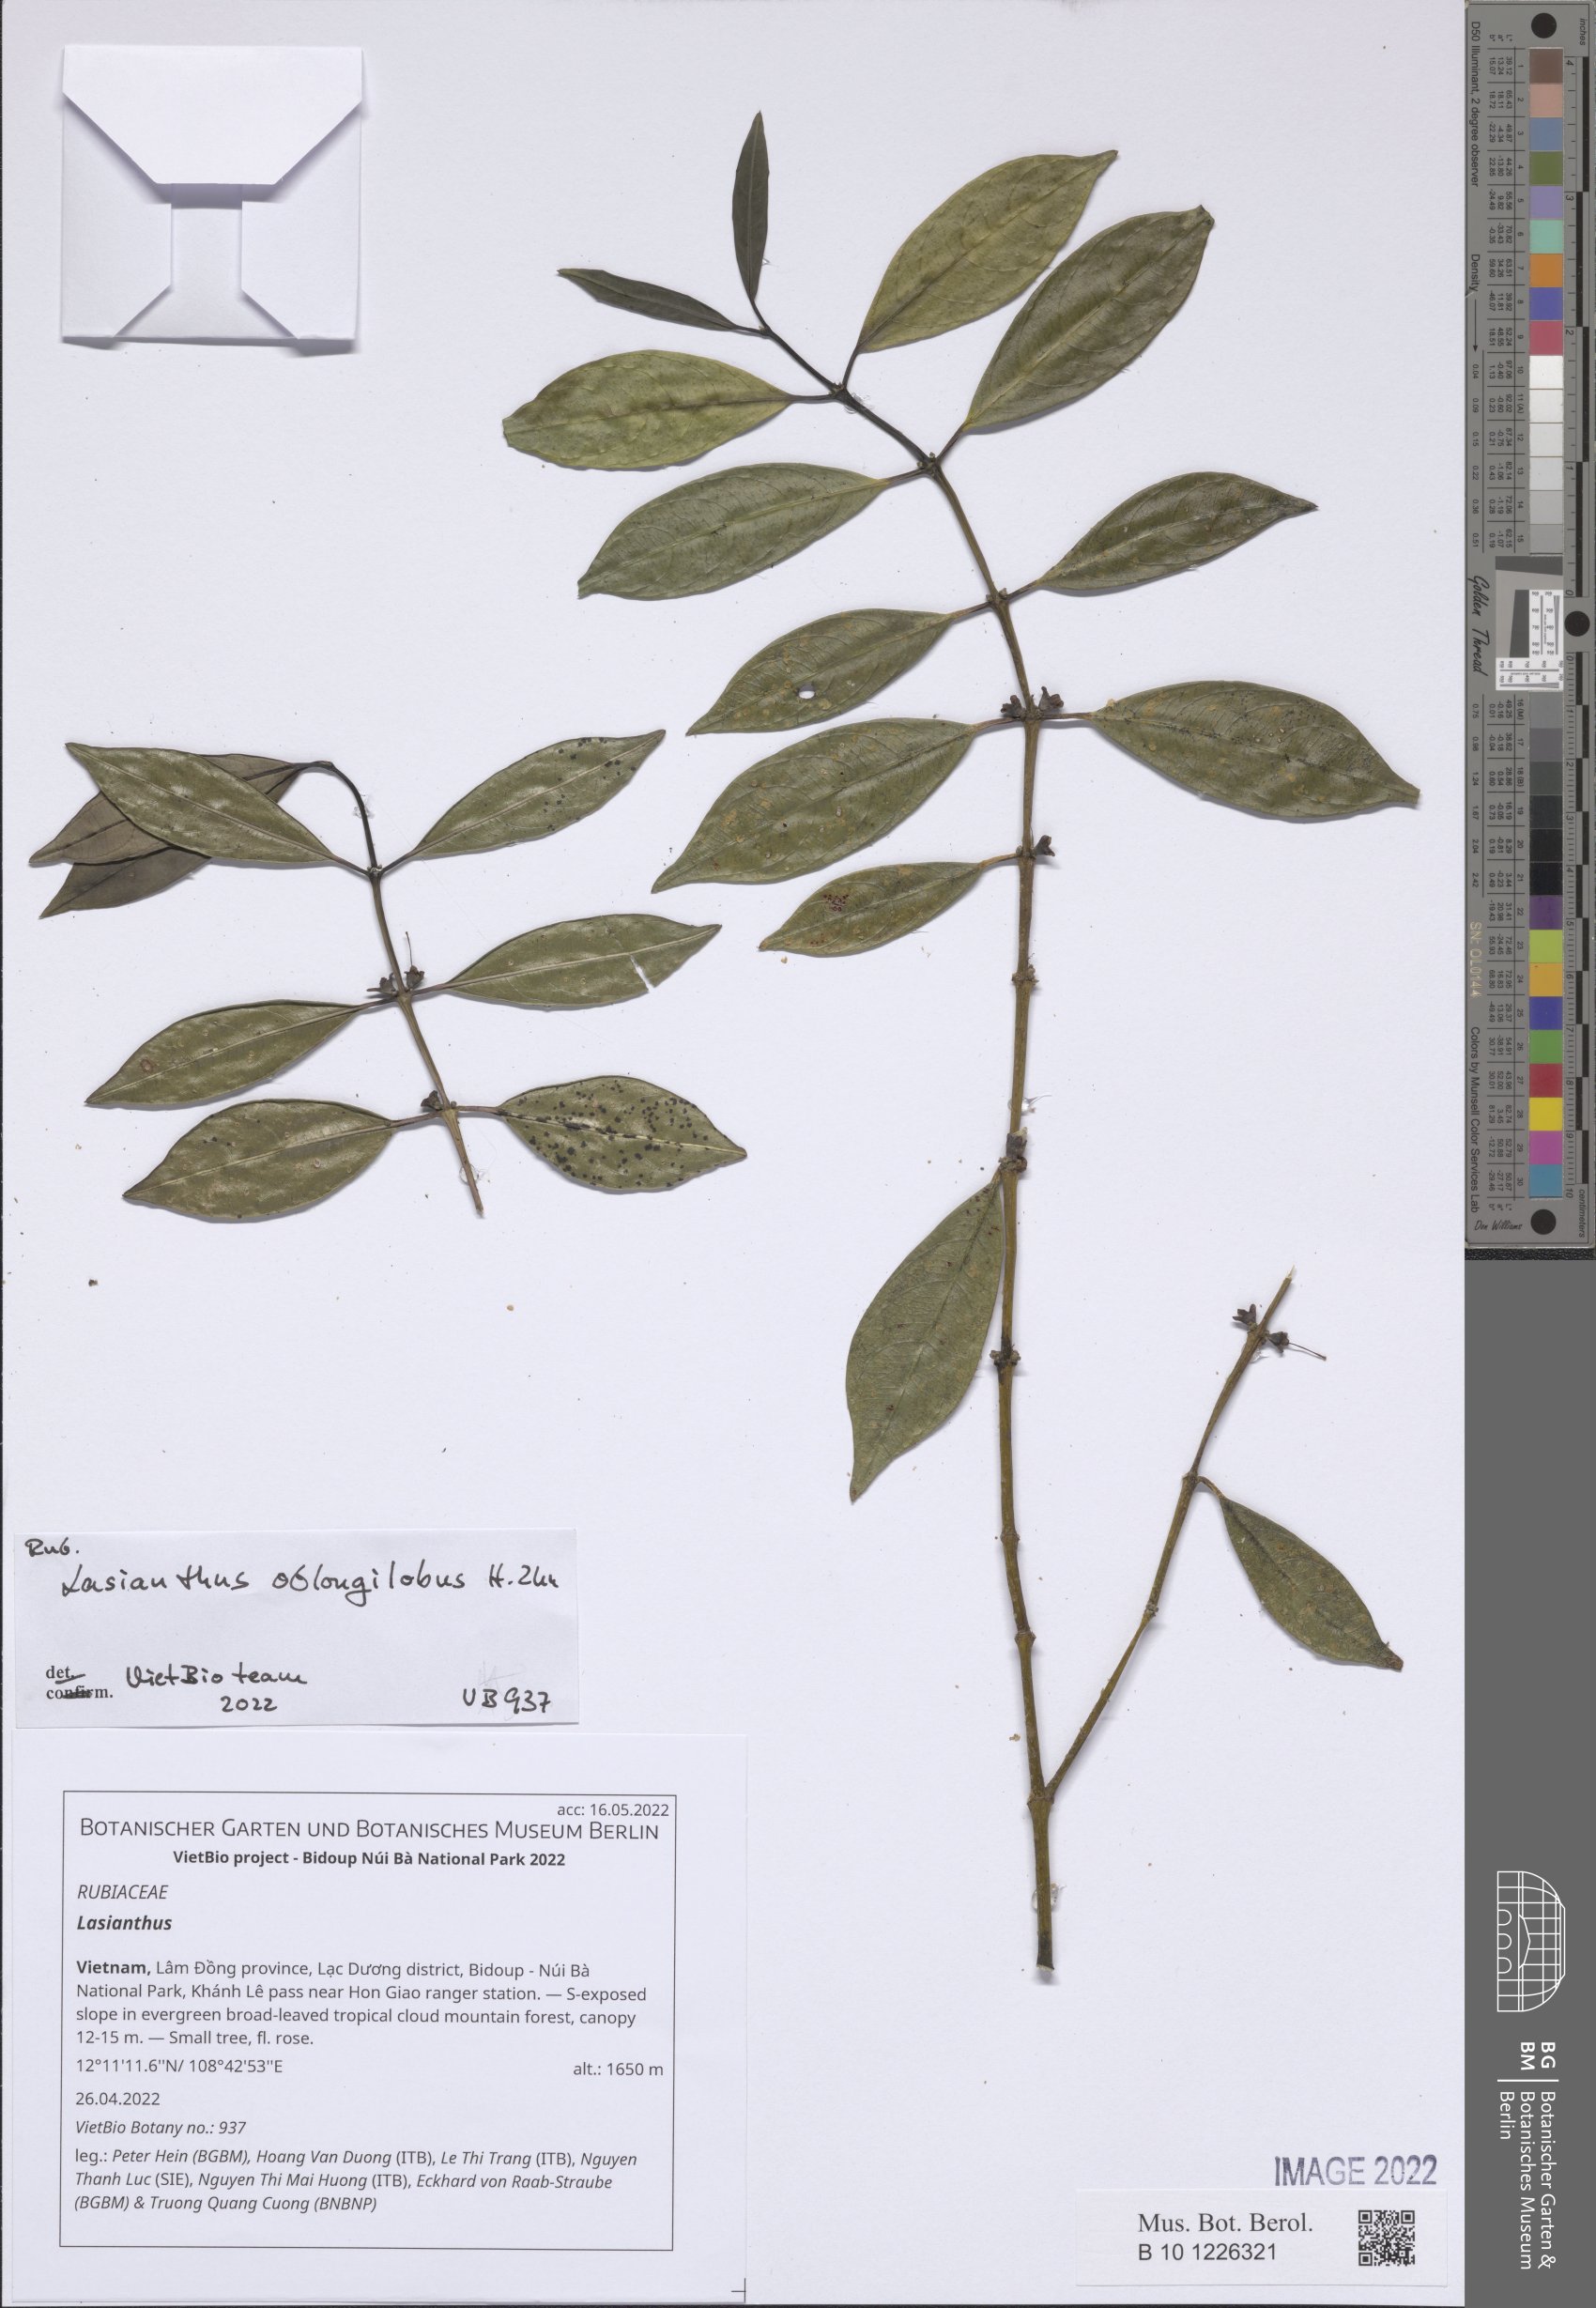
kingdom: Plantae
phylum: Tracheophyta
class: Magnoliopsida
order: Gentianales
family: Rubiaceae
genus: Lasianthus
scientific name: Lasianthus
